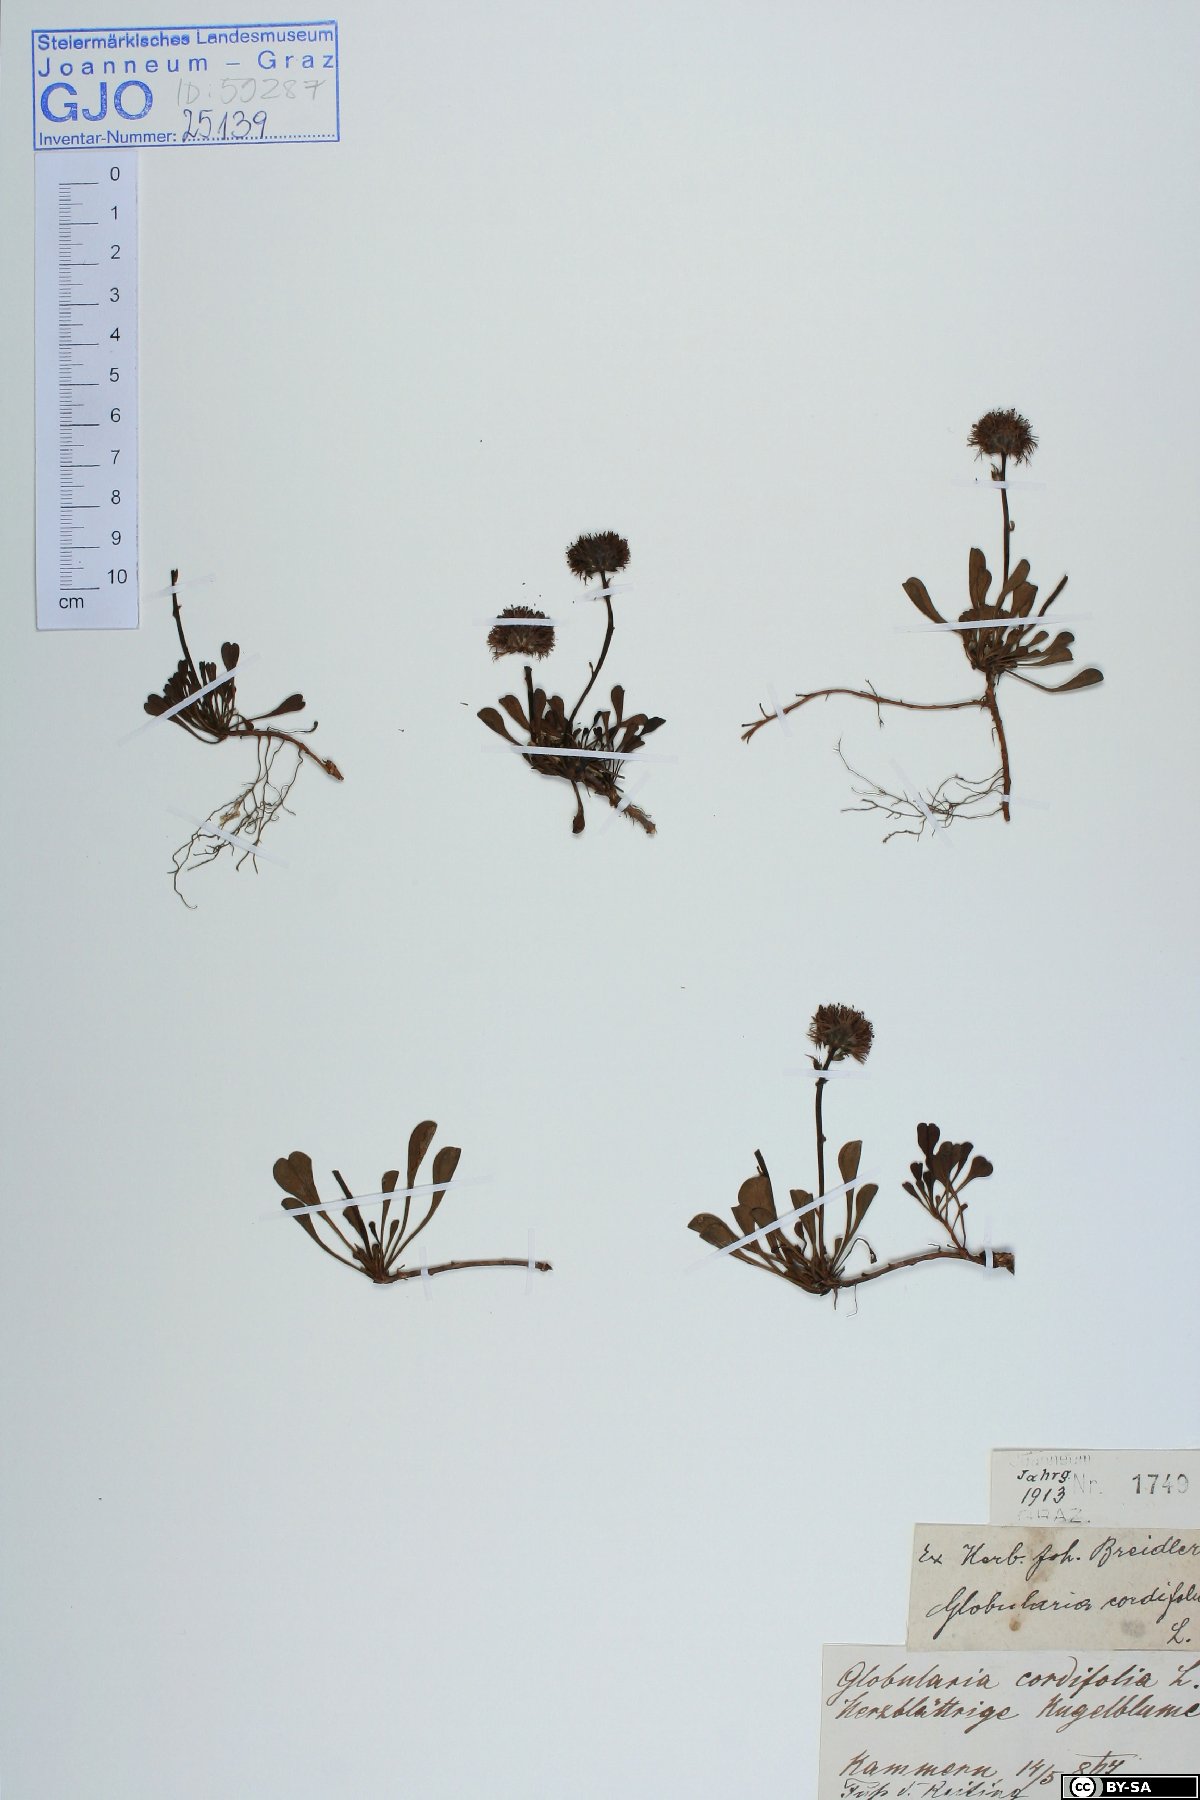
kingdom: Plantae
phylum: Tracheophyta
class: Magnoliopsida
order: Lamiales
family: Plantaginaceae
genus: Globularia
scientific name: Globularia cordifolia
